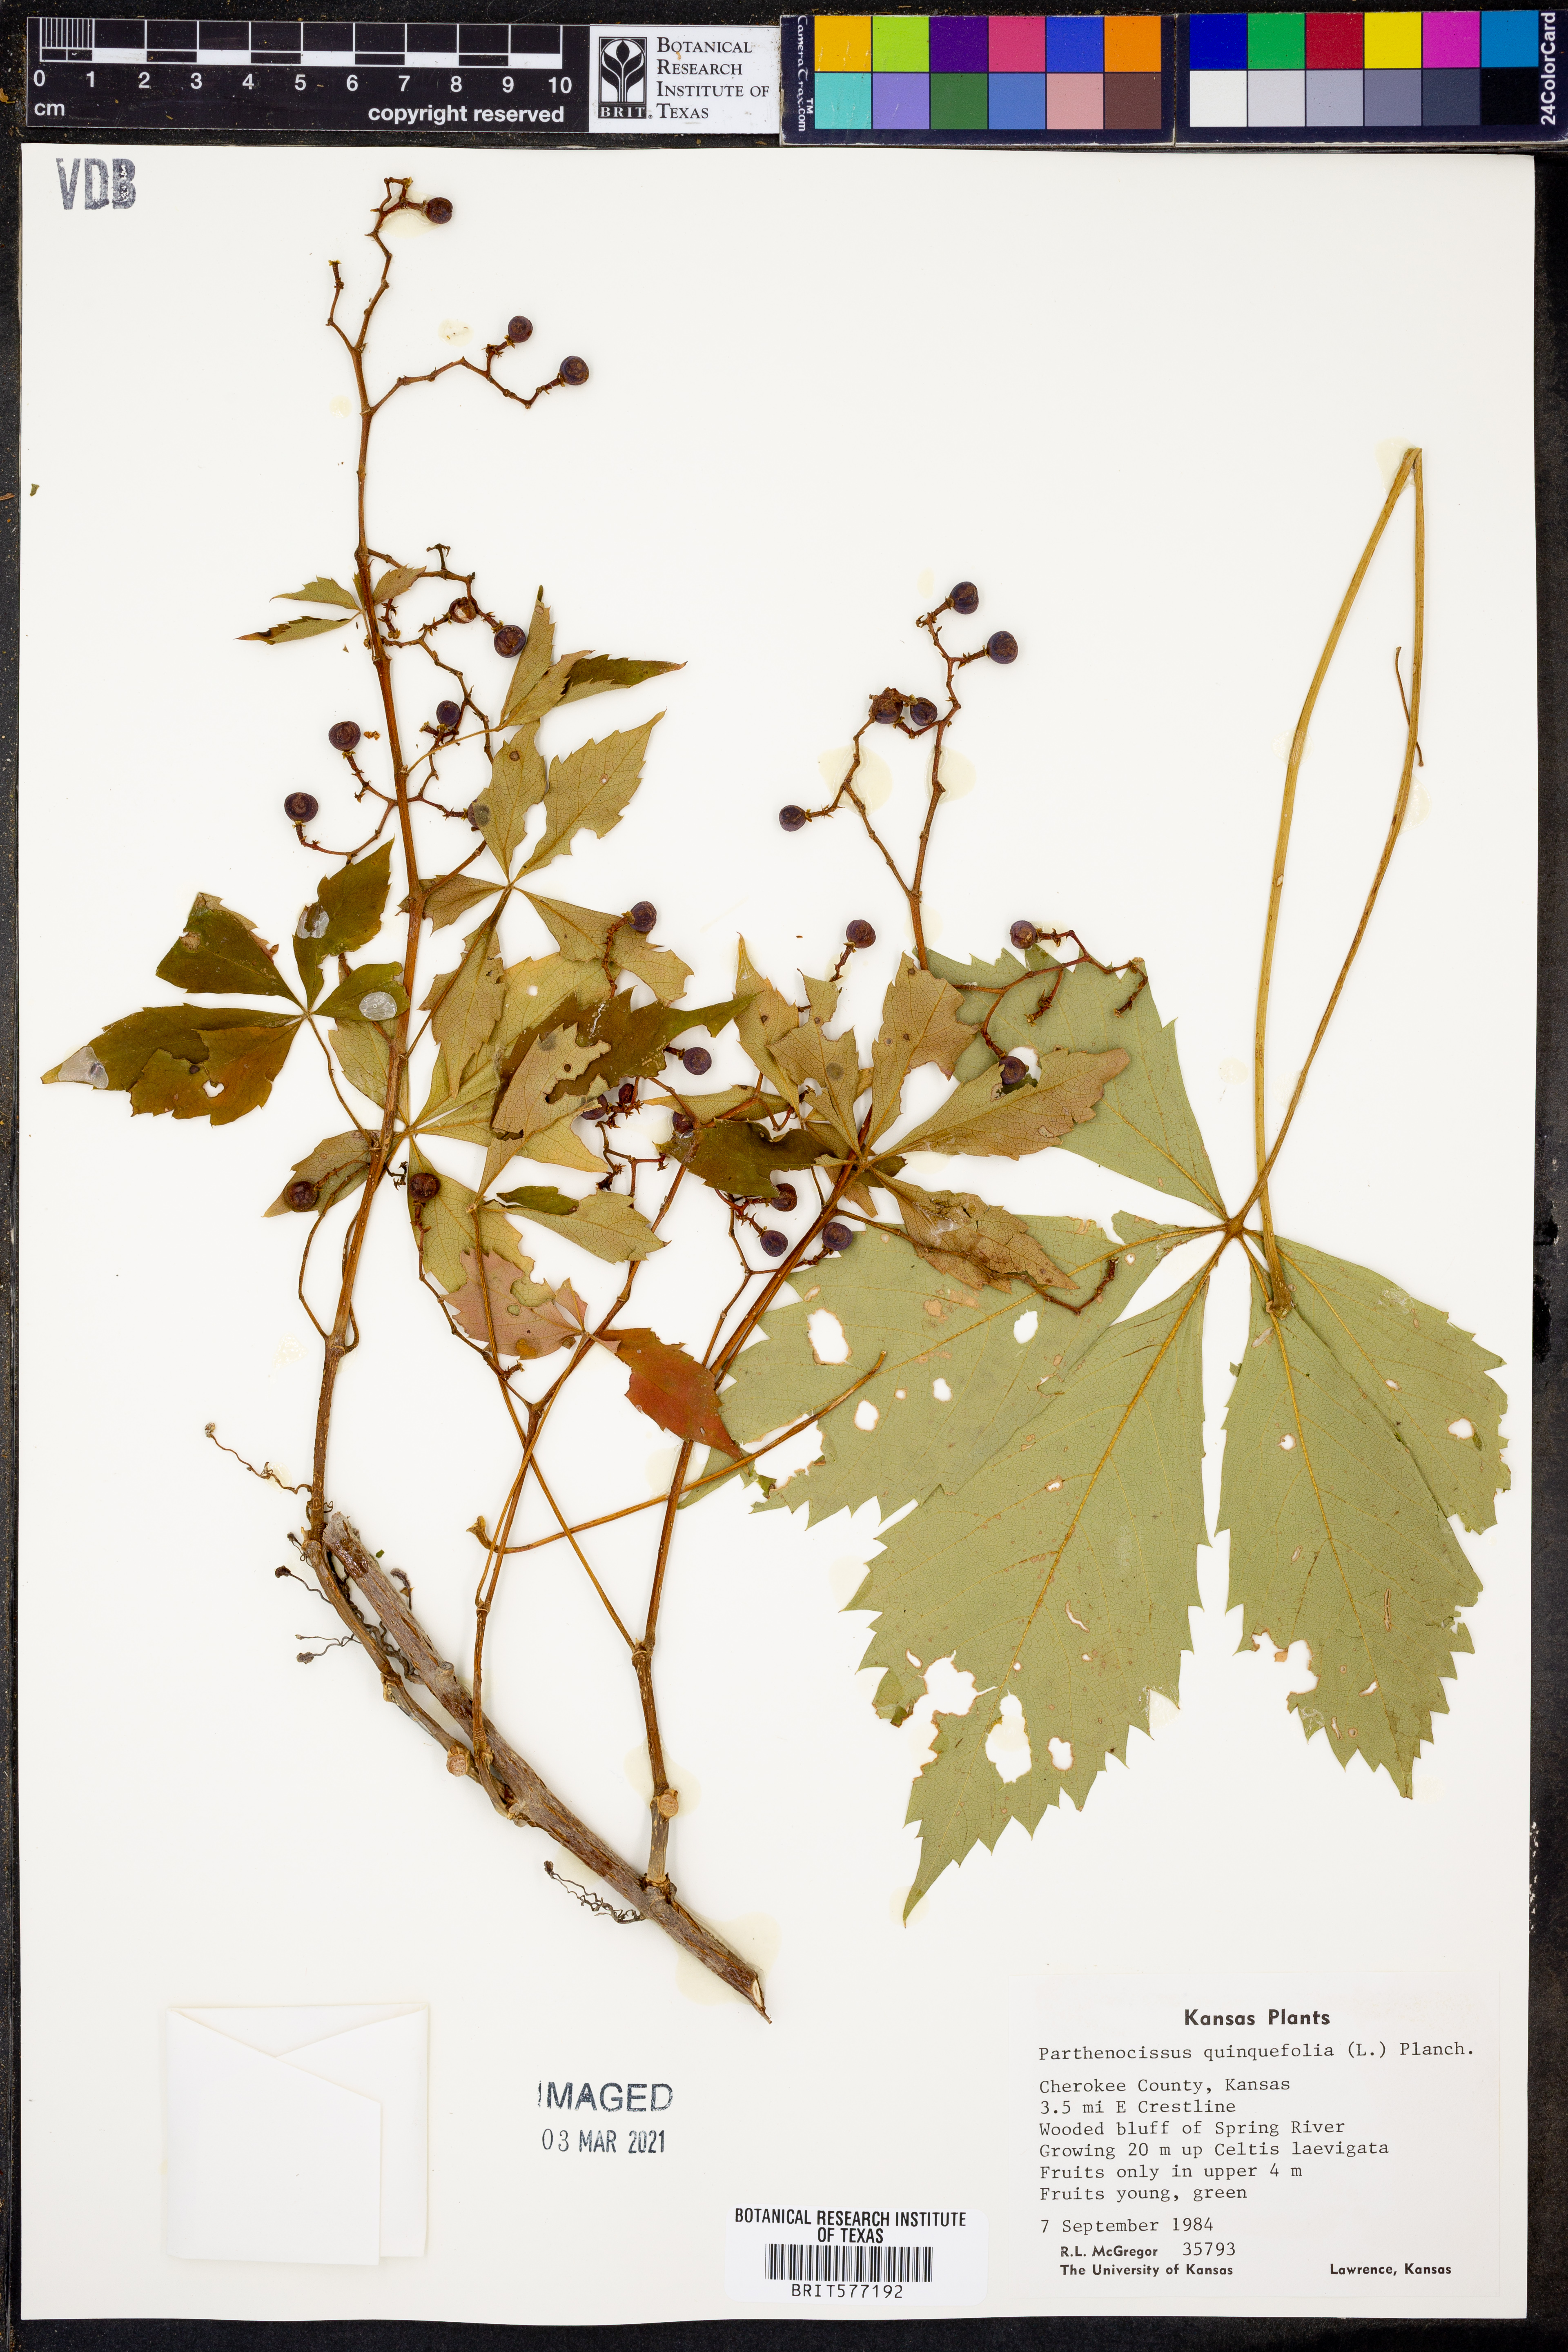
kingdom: Plantae
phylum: Tracheophyta
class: Magnoliopsida
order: Vitales
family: Vitaceae
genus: Parthenocissus
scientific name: Parthenocissus quinquefolia
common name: Virginia-creeper
